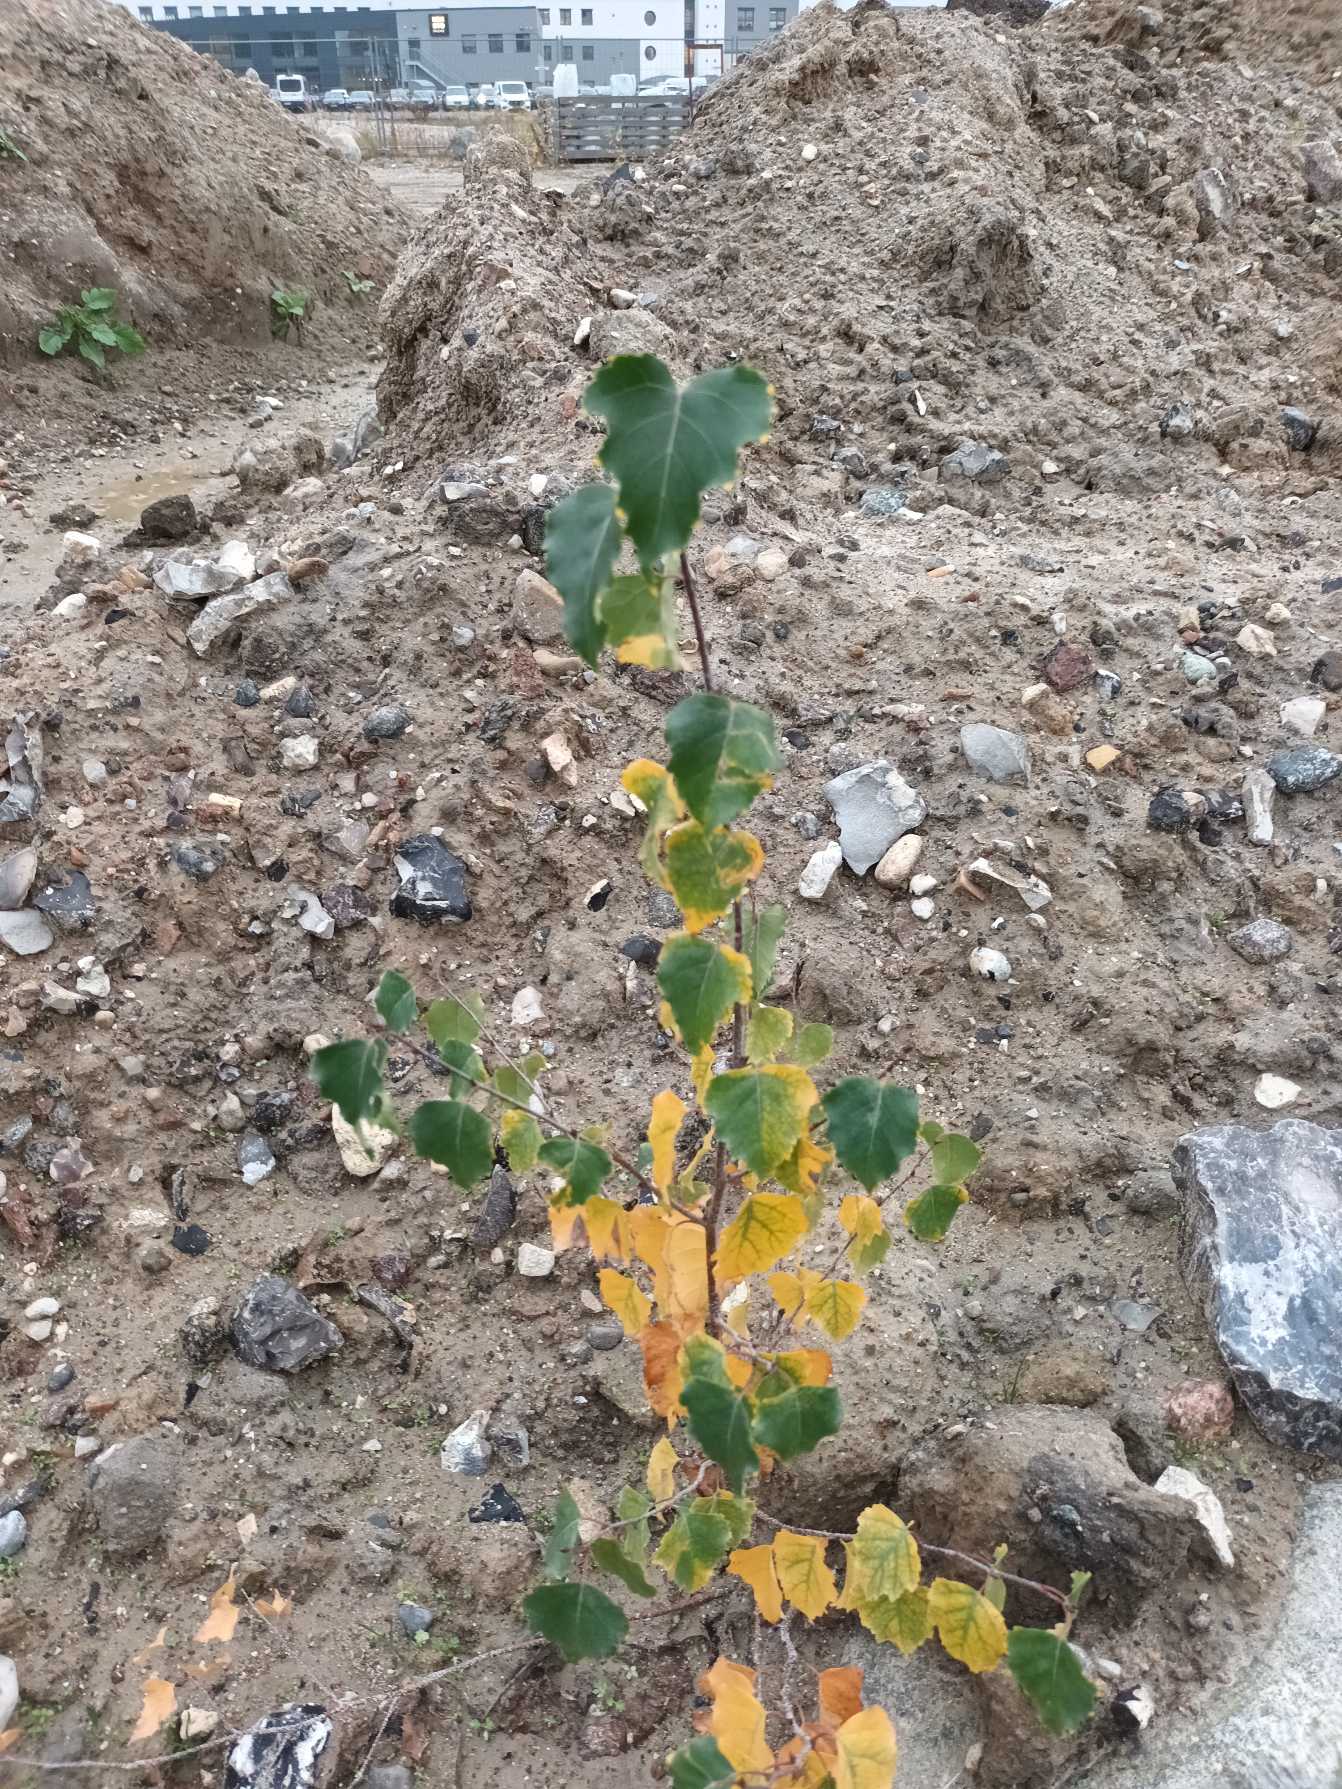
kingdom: Plantae
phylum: Tracheophyta
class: Magnoliopsida
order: Fagales
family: Betulaceae
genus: Betula
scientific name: Betula pendula
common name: Vorte-birk
